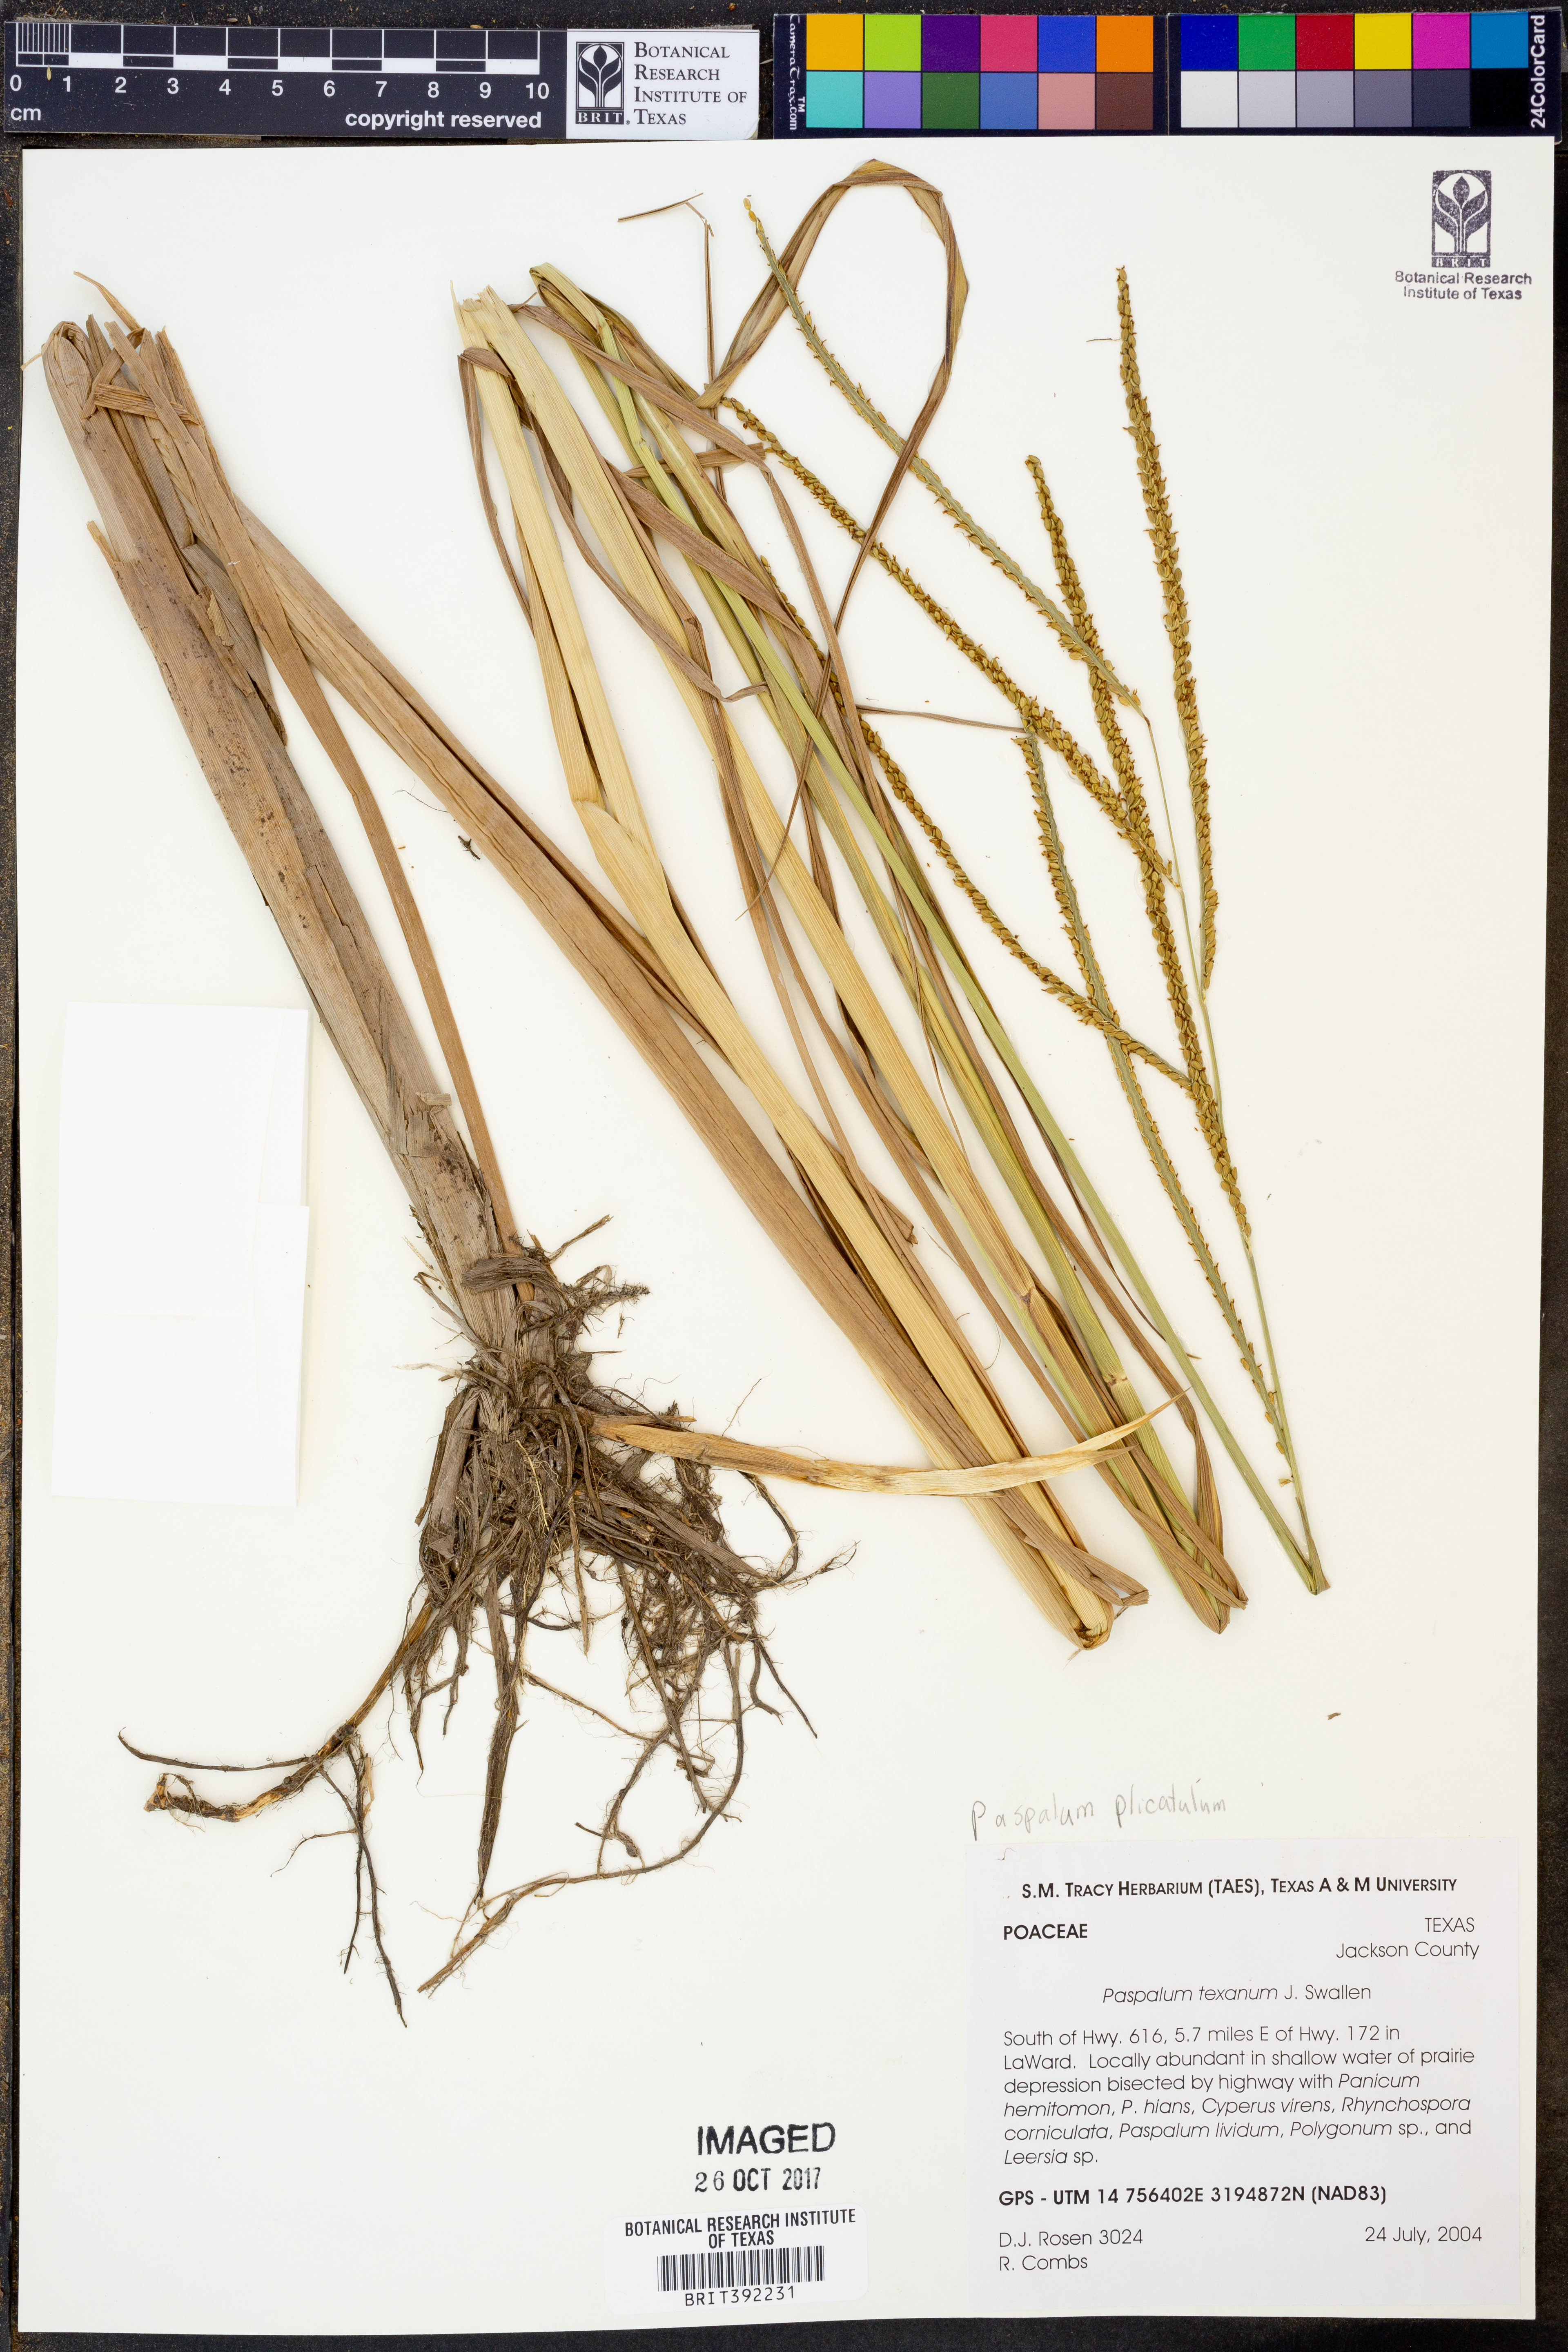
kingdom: Plantae
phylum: Tracheophyta
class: Liliopsida
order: Poales
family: Poaceae
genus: Paspalum
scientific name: Paspalum plicatulum
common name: Top paspalum
